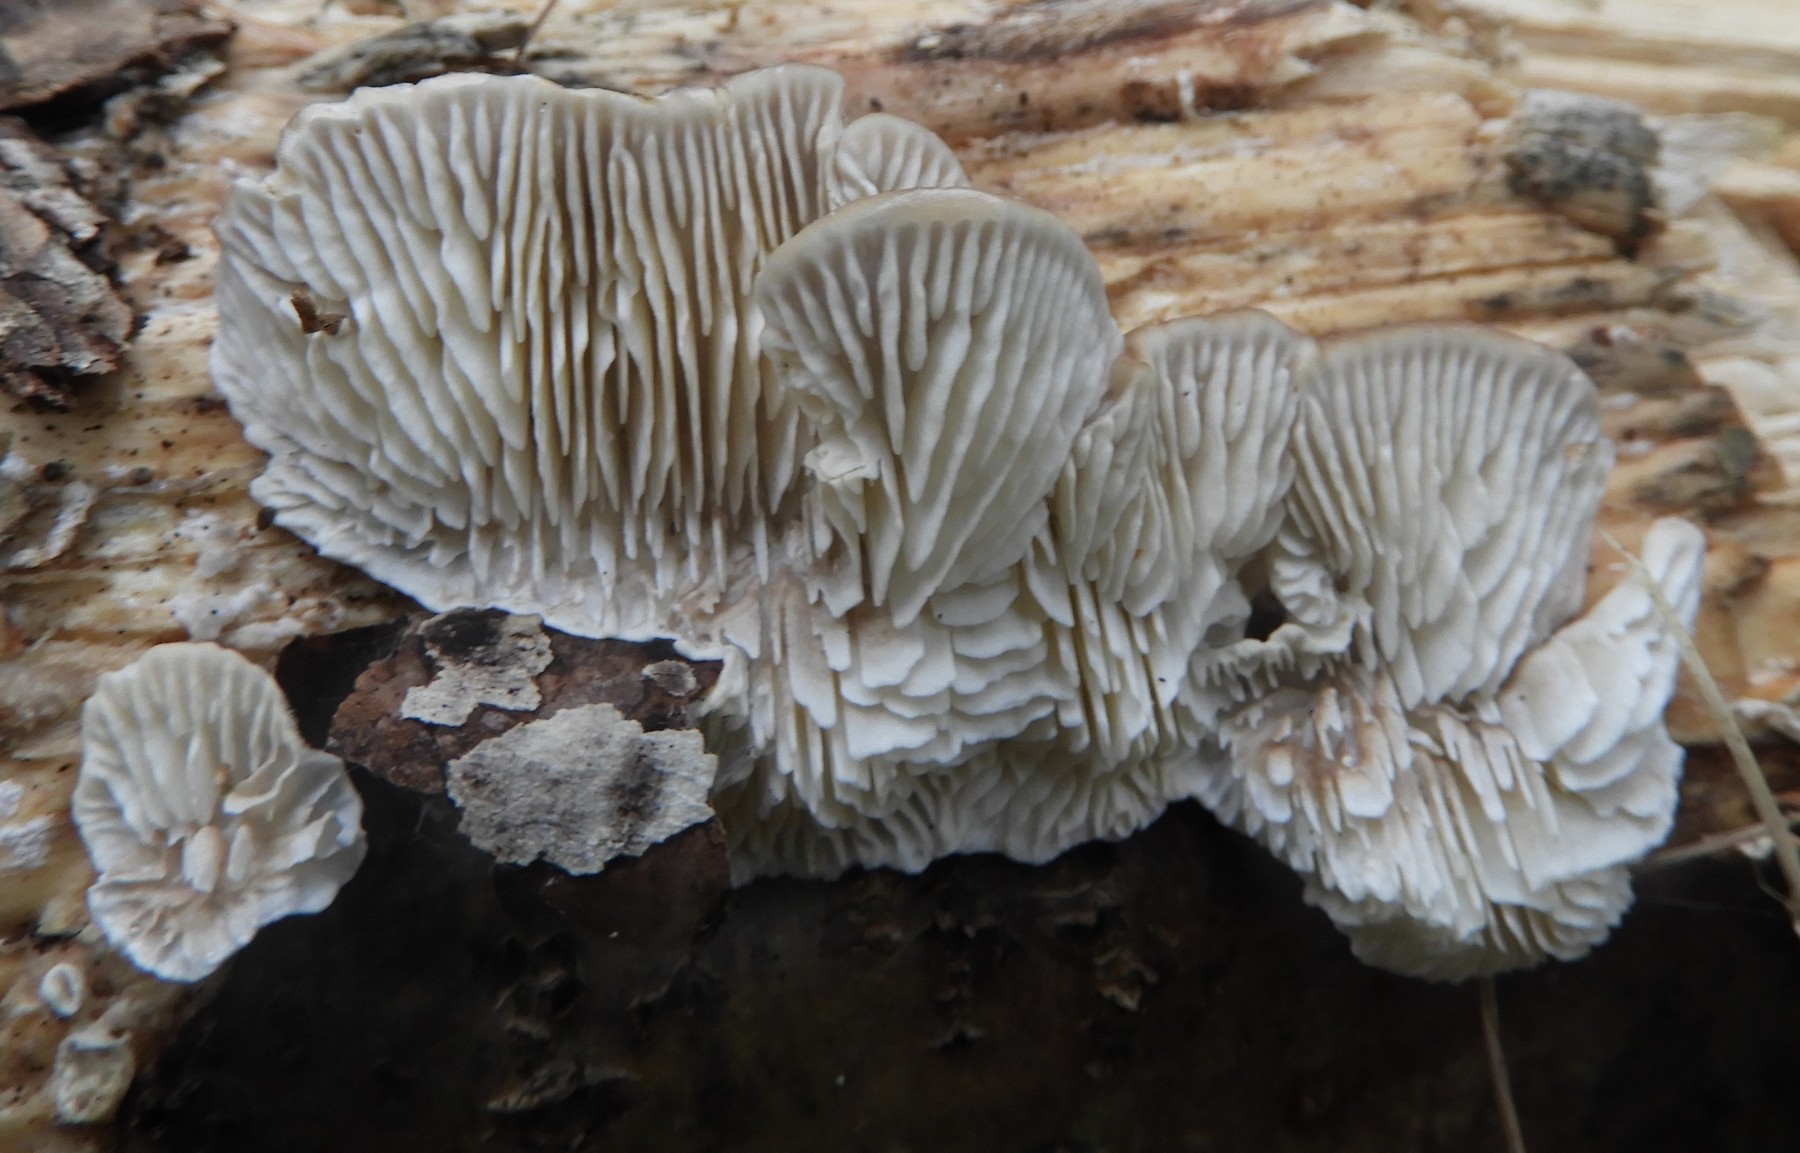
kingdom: Fungi
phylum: Basidiomycota
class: Agaricomycetes
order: Polyporales
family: Polyporaceae
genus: Lenzites
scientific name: Lenzites betulinus
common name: birke-læderporesvamp
